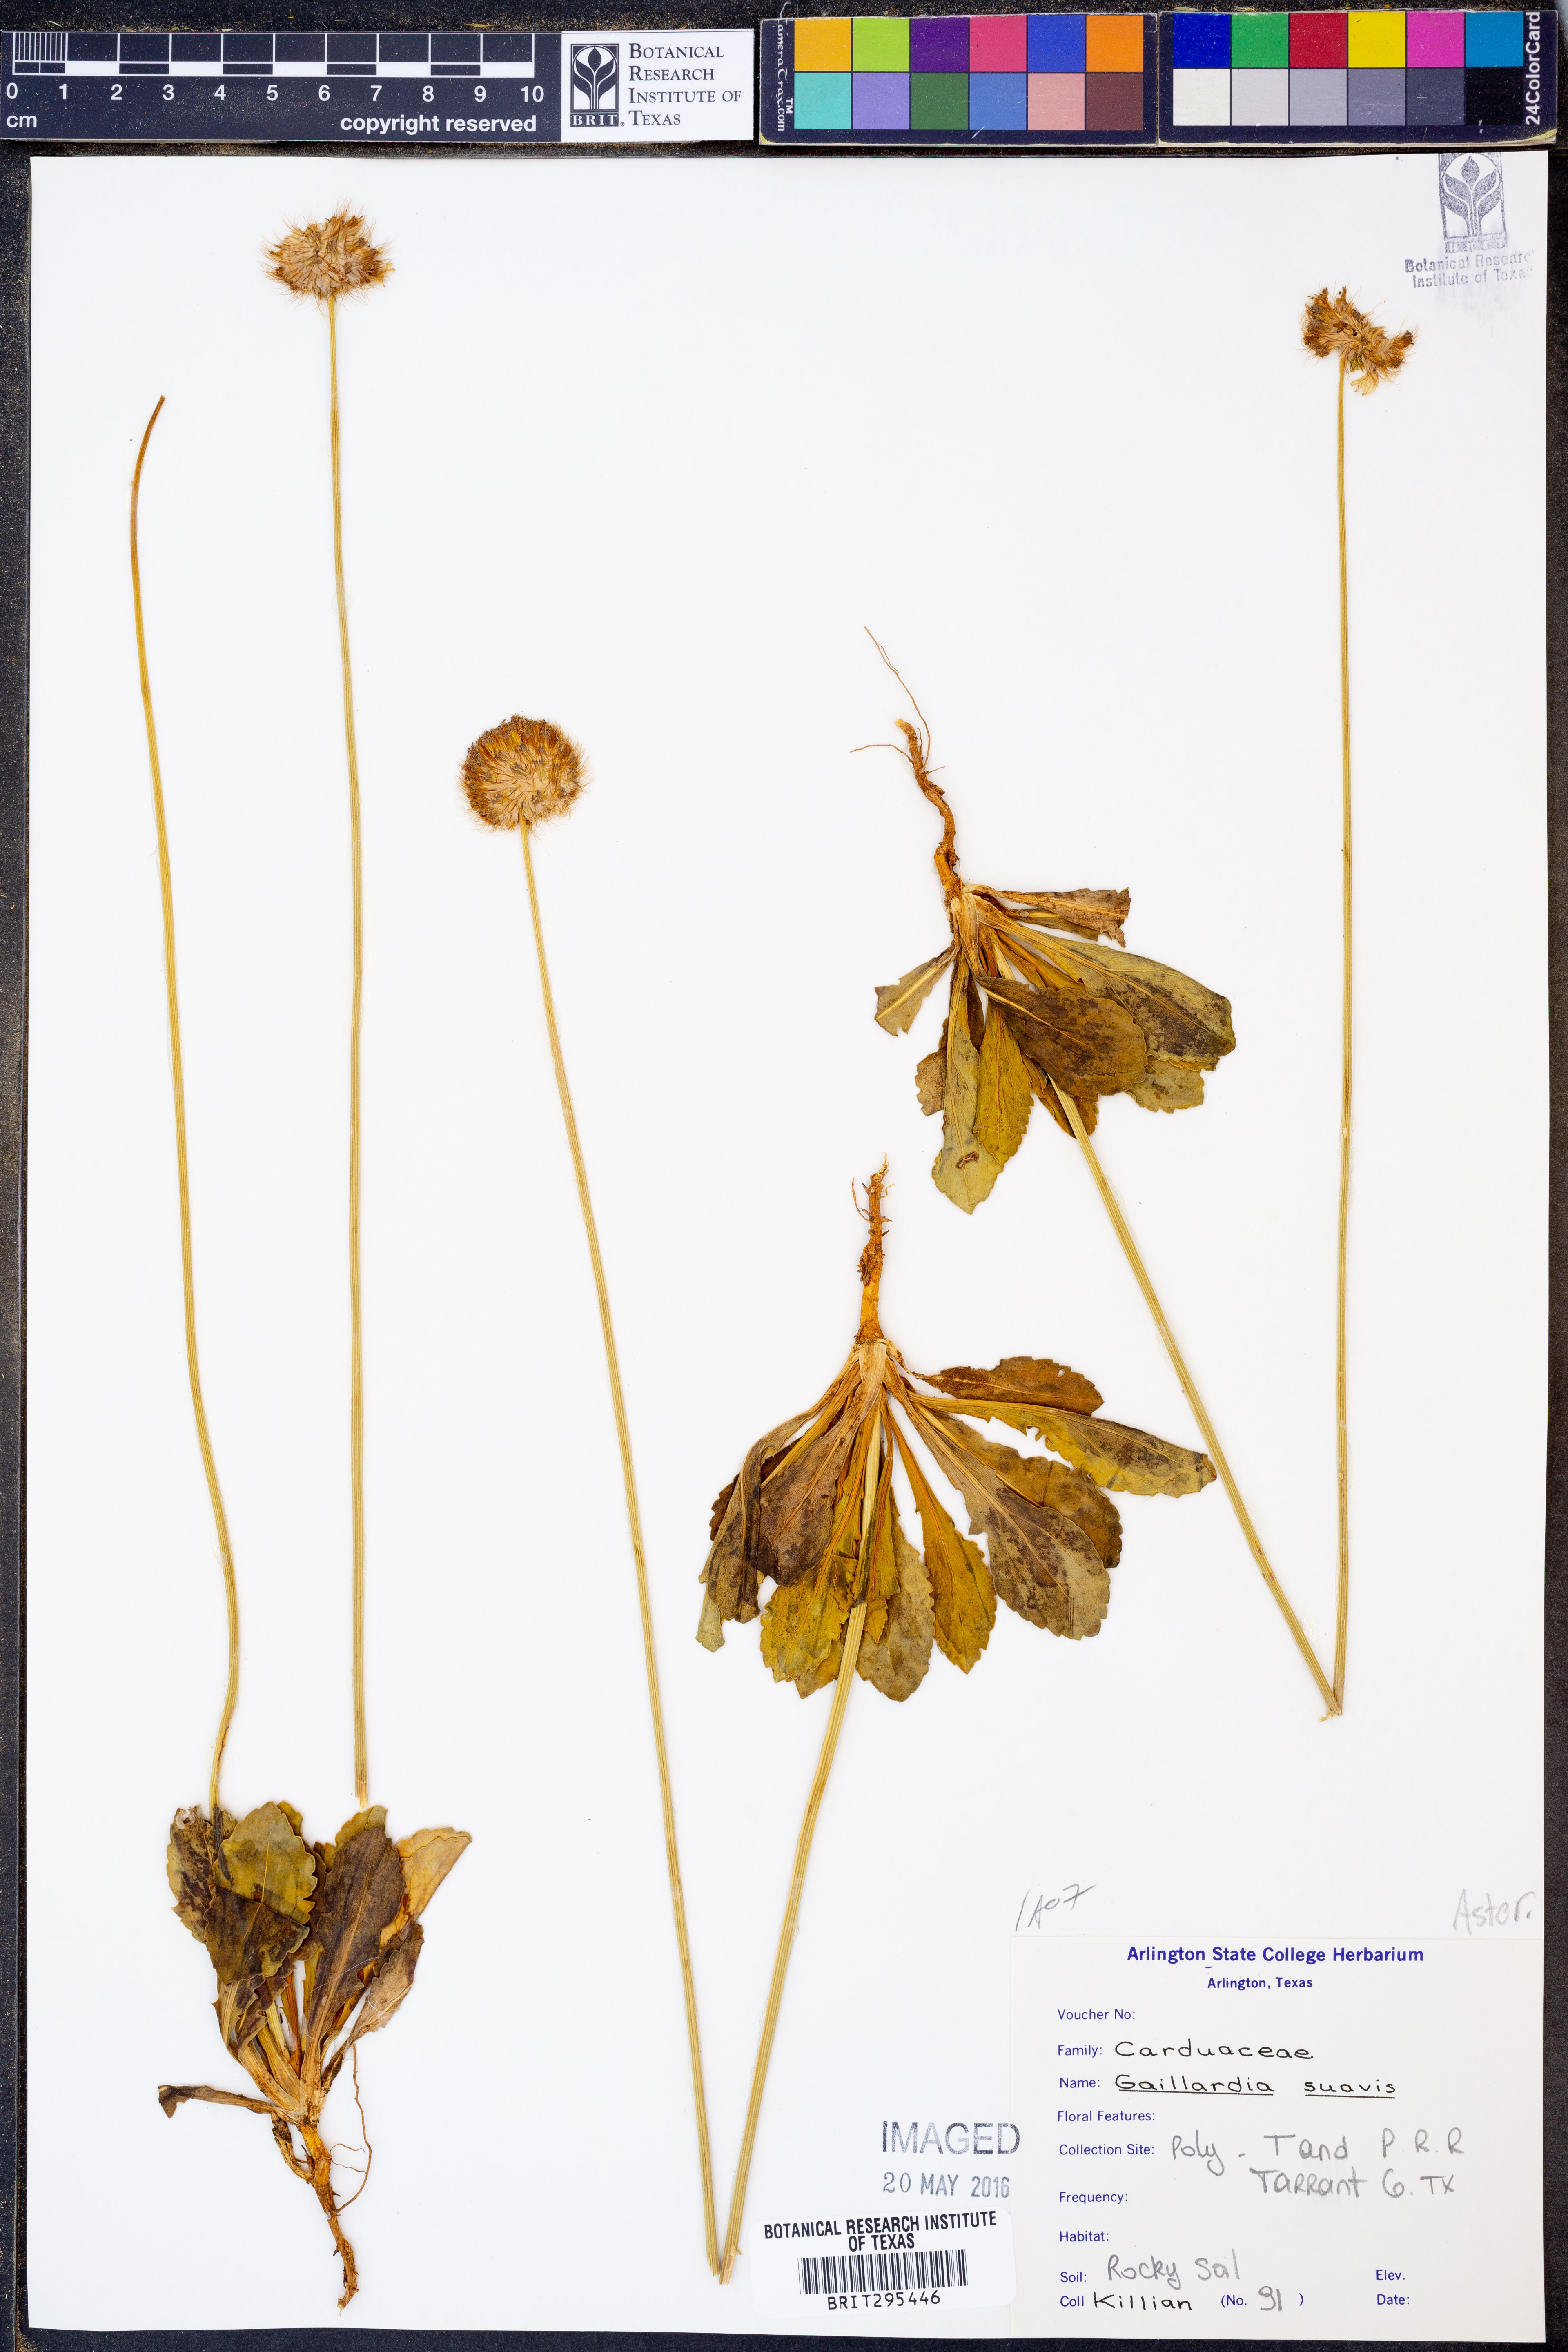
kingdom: Plantae
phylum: Tracheophyta
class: Magnoliopsida
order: Asterales
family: Asteraceae
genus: Gaillardia
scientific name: Gaillardia suavis
